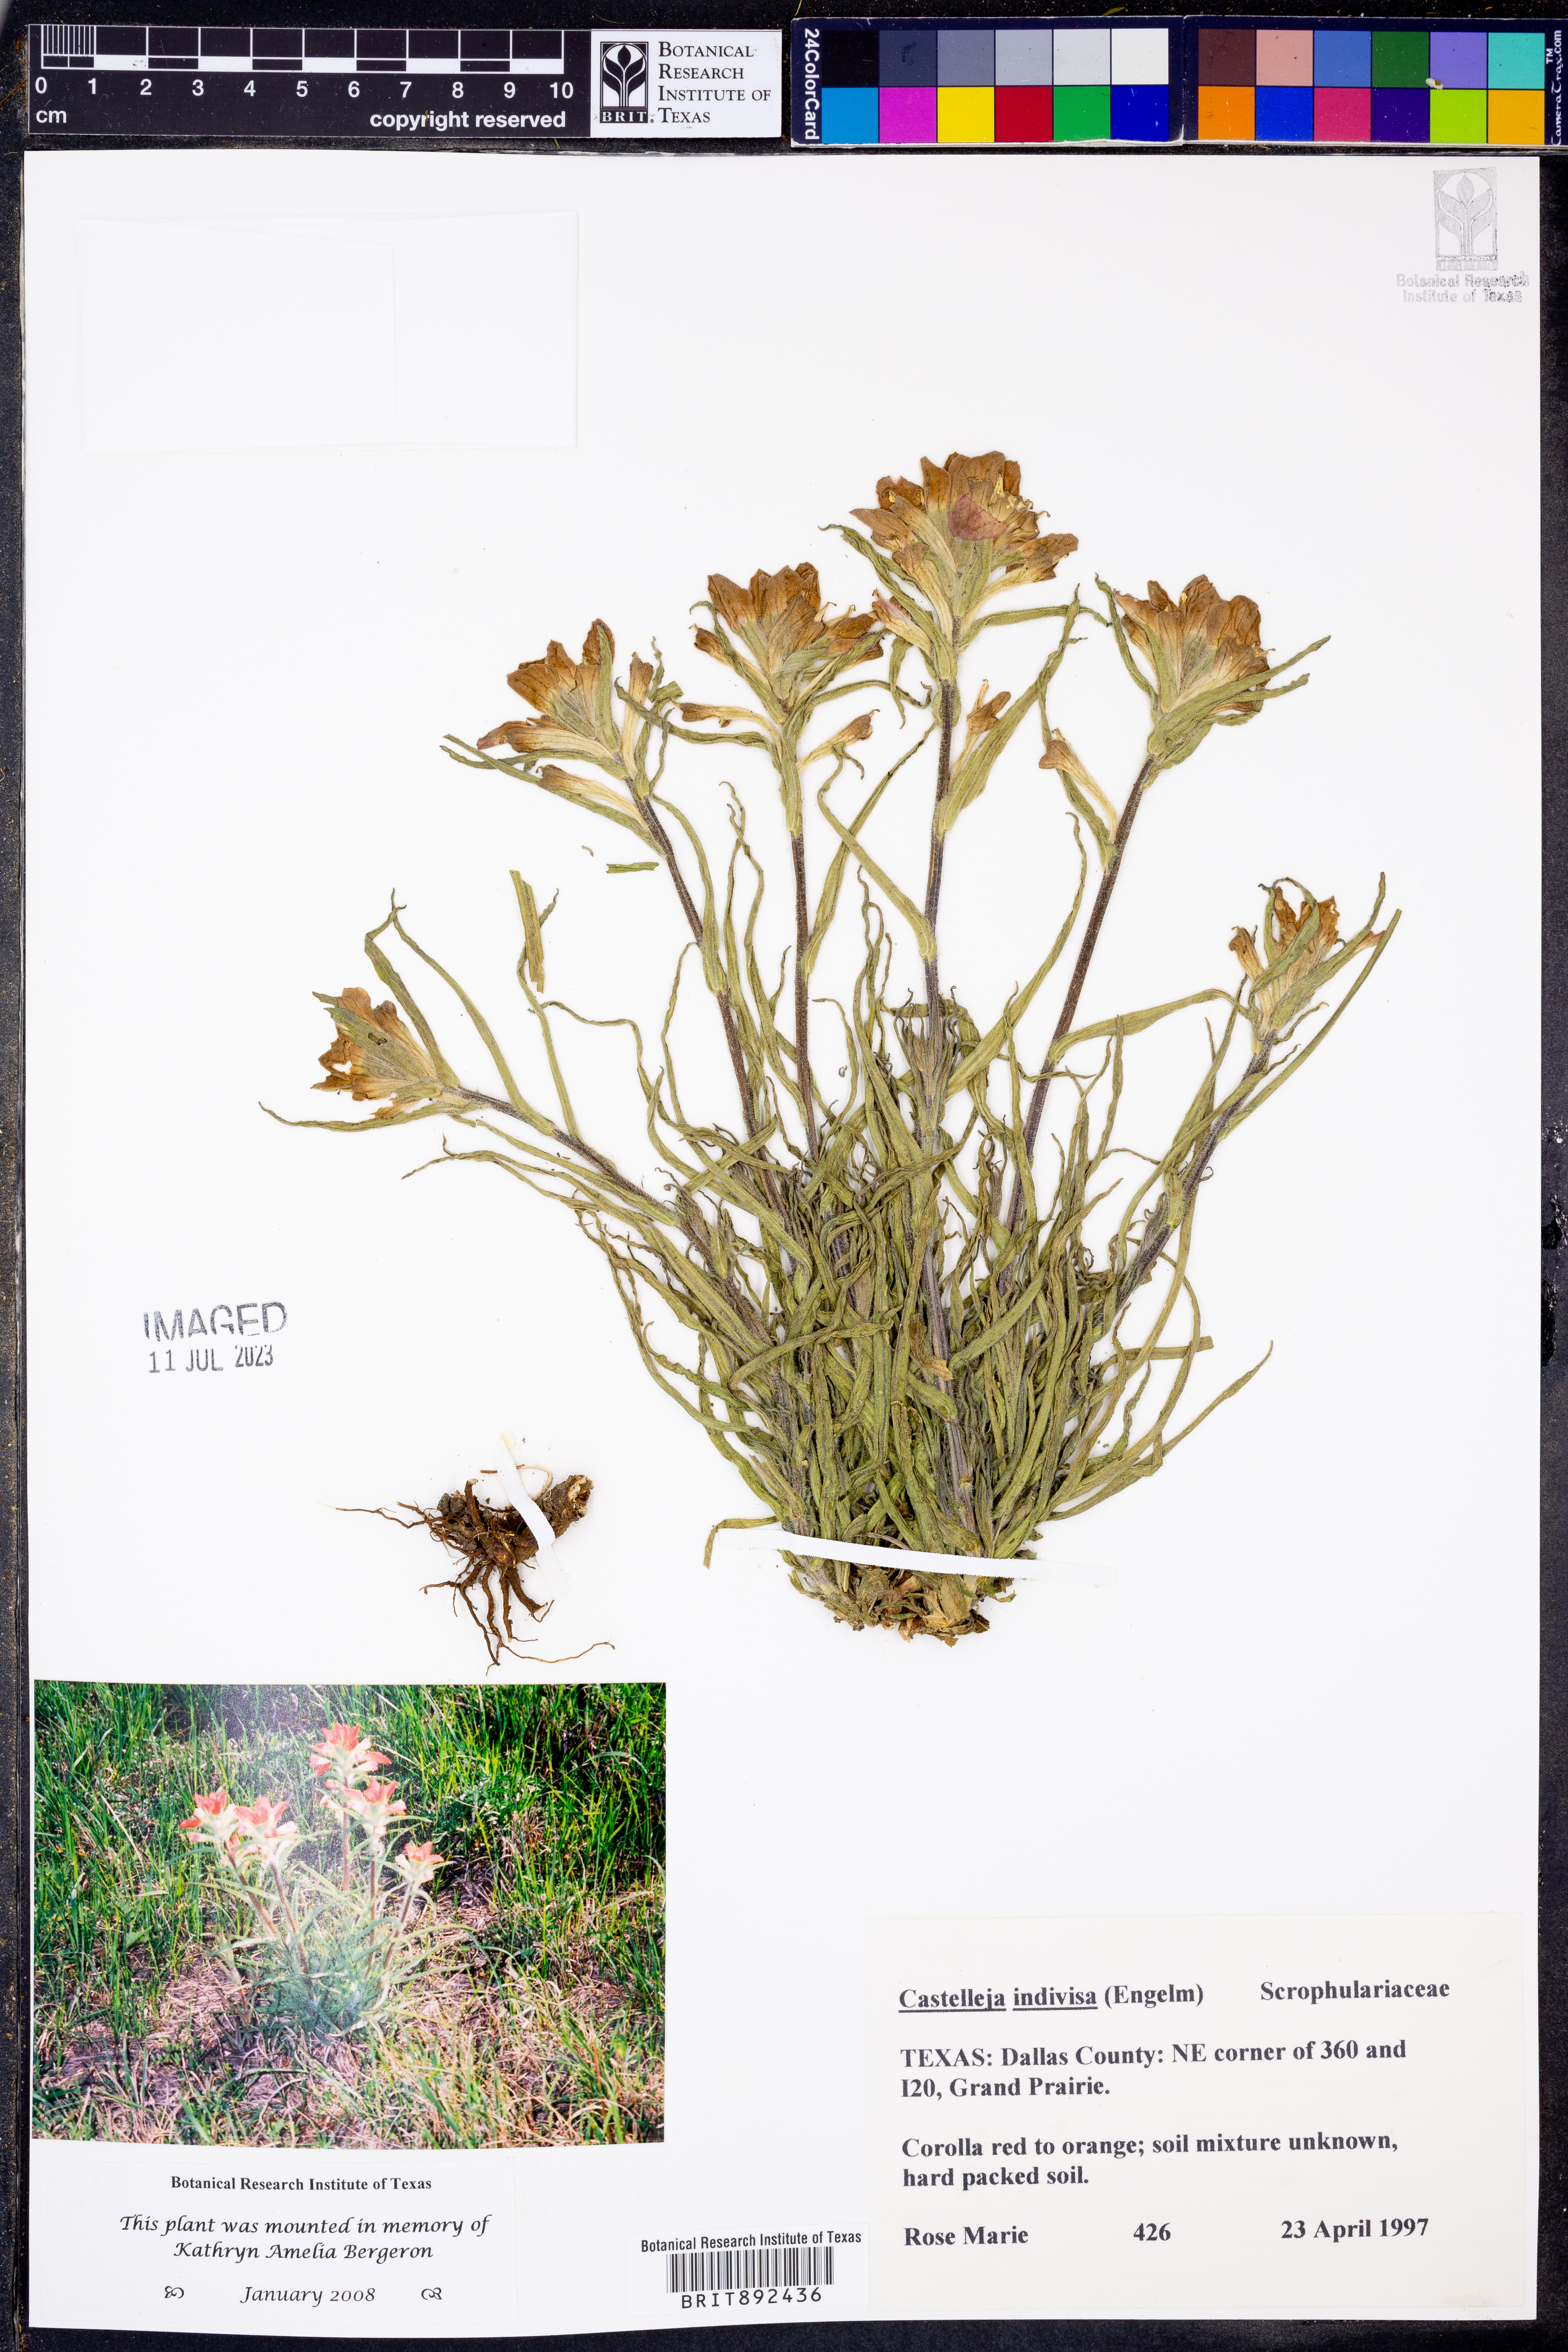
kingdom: Plantae
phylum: Tracheophyta
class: Magnoliopsida
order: Lamiales
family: Orobanchaceae
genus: Castilleja
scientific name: Castilleja indivisa
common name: Texas paintbrush
